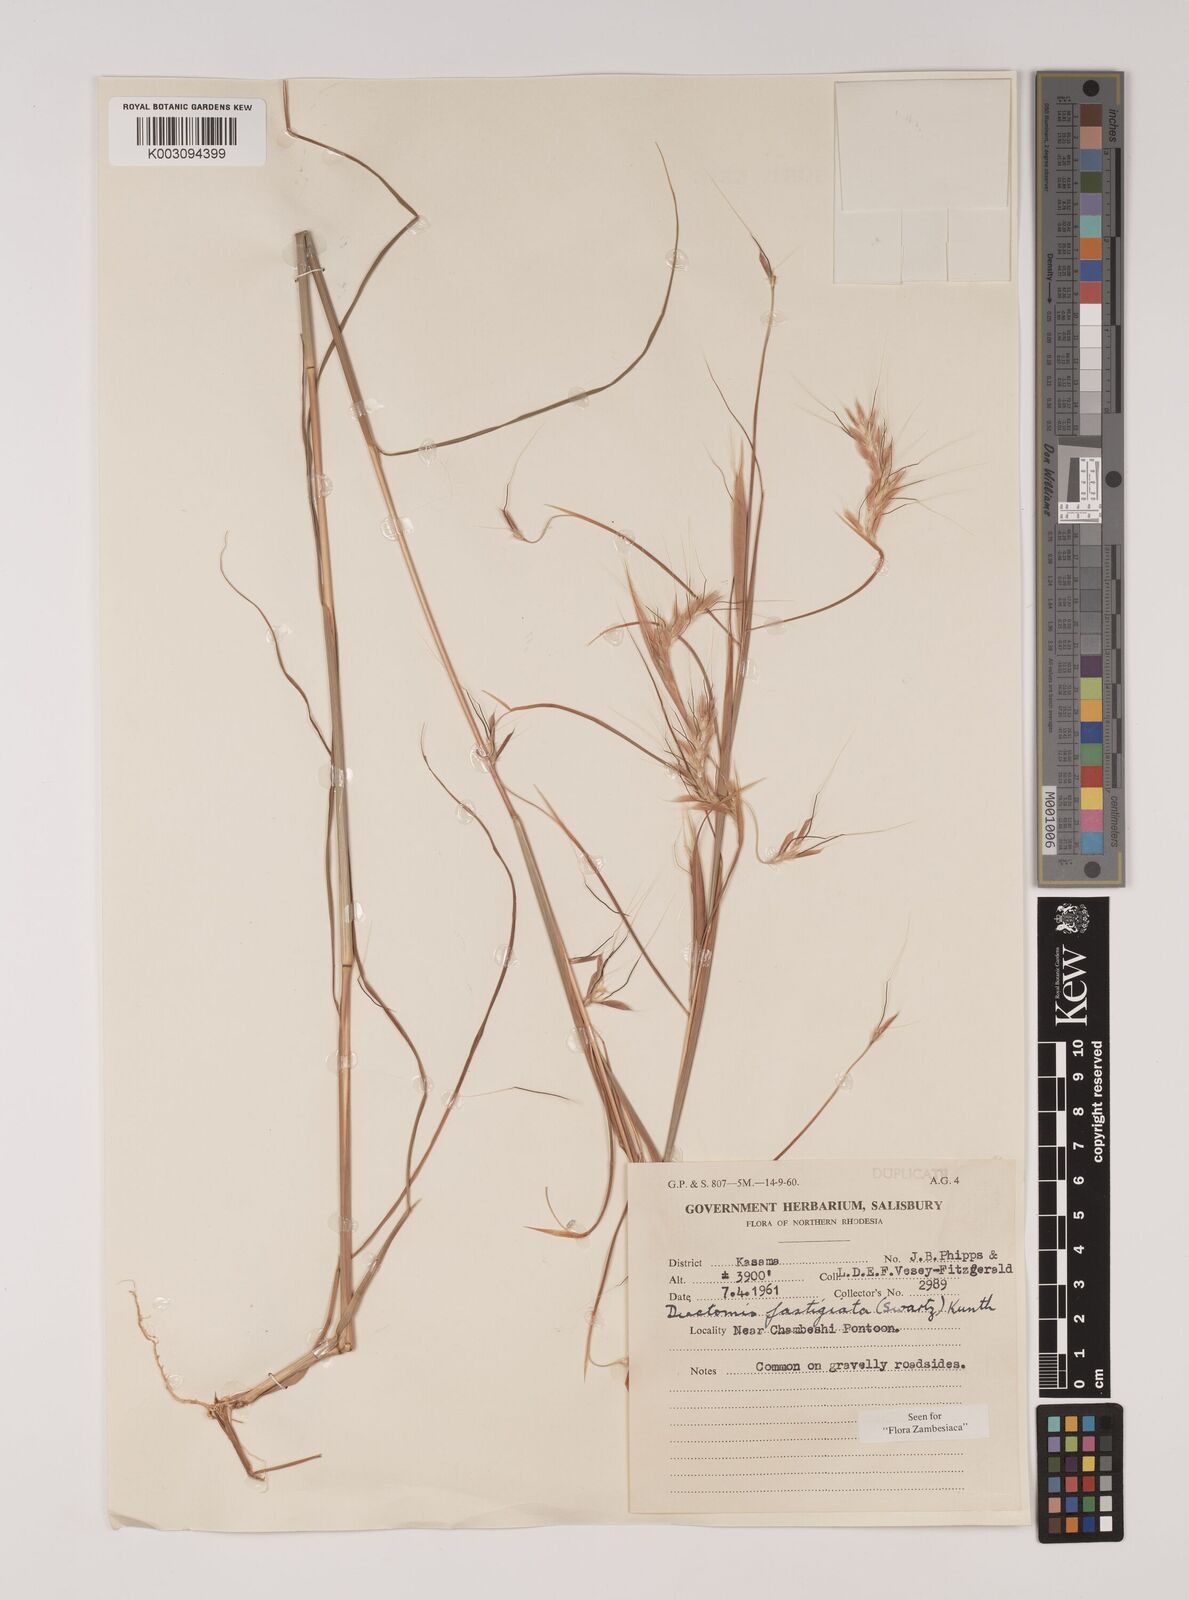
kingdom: Plantae
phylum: Tracheophyta
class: Liliopsida
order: Poales
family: Poaceae
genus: Diectomis
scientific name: Diectomis fastigiata
